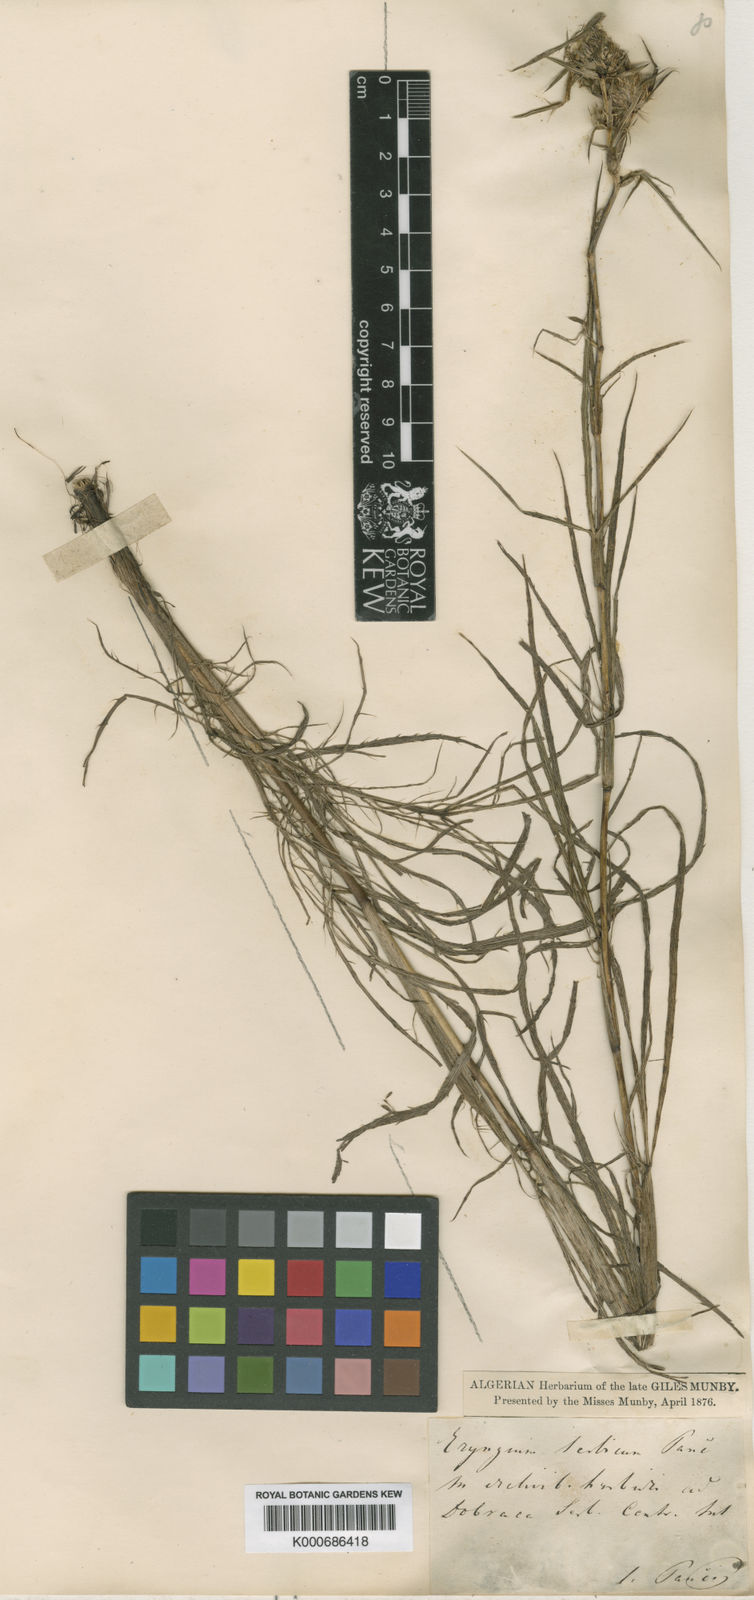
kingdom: Plantae
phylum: Tracheophyta
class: Magnoliopsida
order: Apiales
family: Apiaceae
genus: Eryngium
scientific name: Eryngium serbicum
